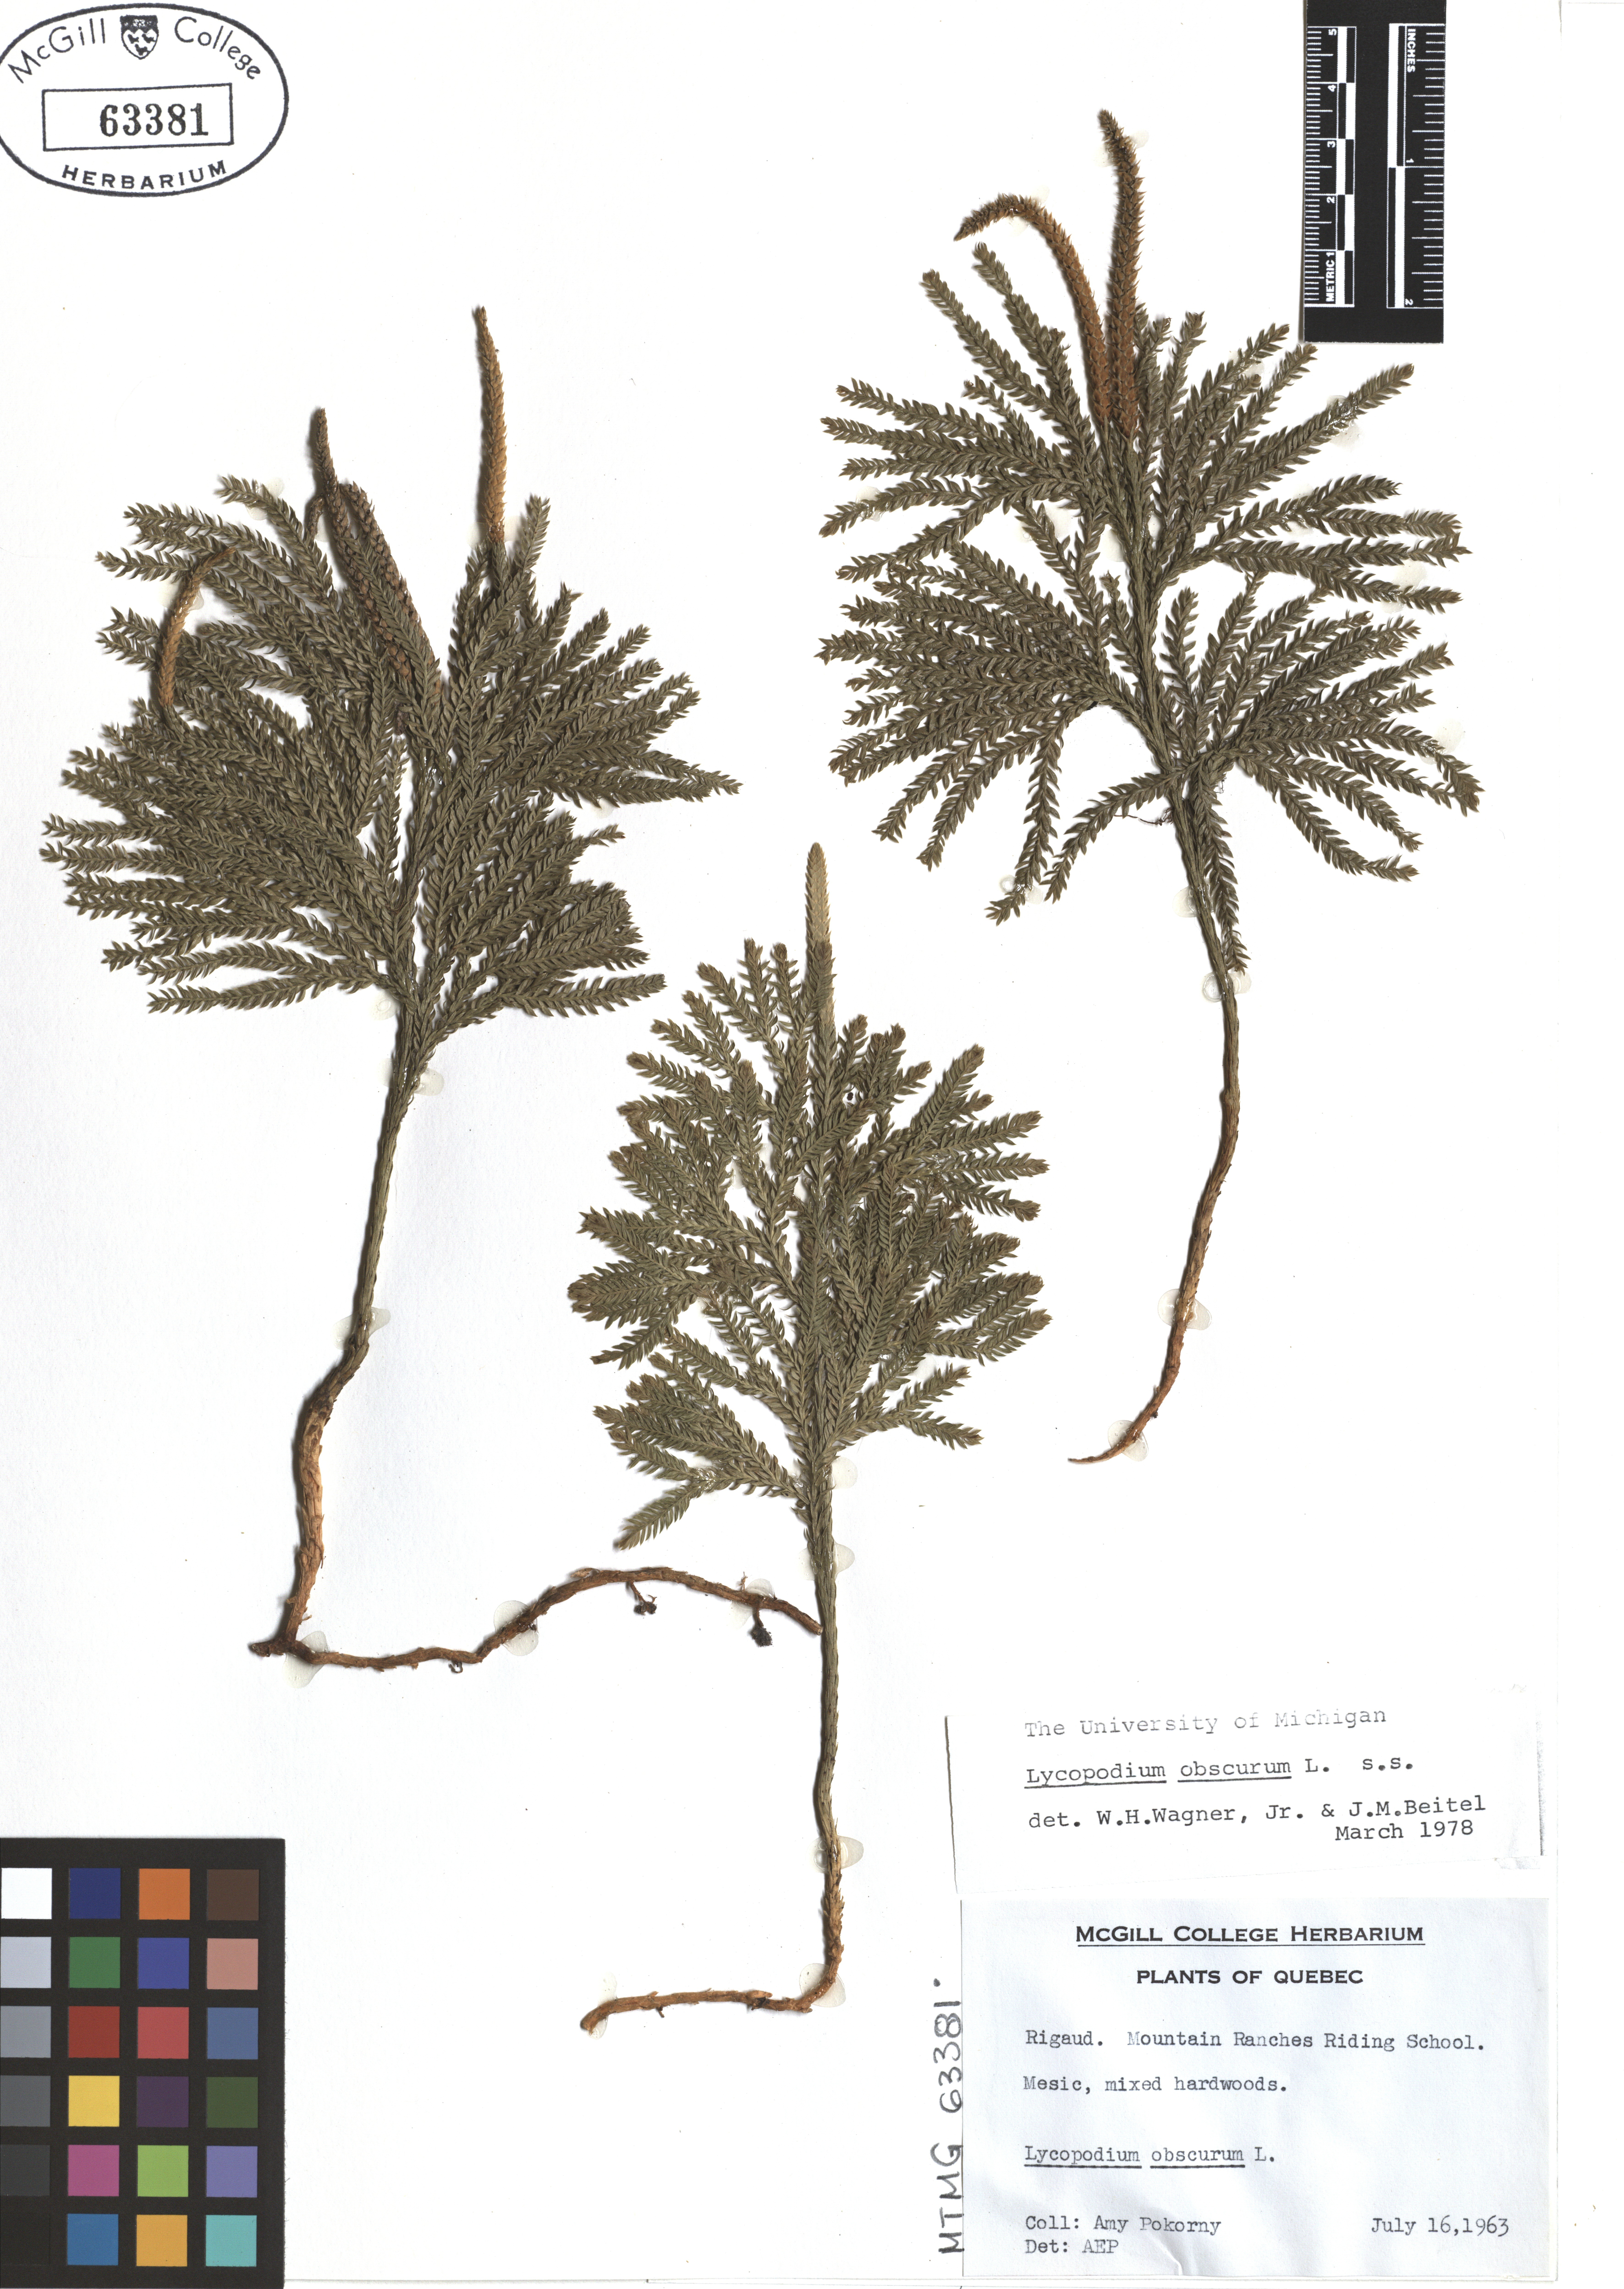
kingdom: Plantae
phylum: Tracheophyta
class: Lycopodiopsida
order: Lycopodiales
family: Lycopodiaceae
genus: Dendrolycopodium
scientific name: Dendrolycopodium obscurum
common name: Common ground-pine
